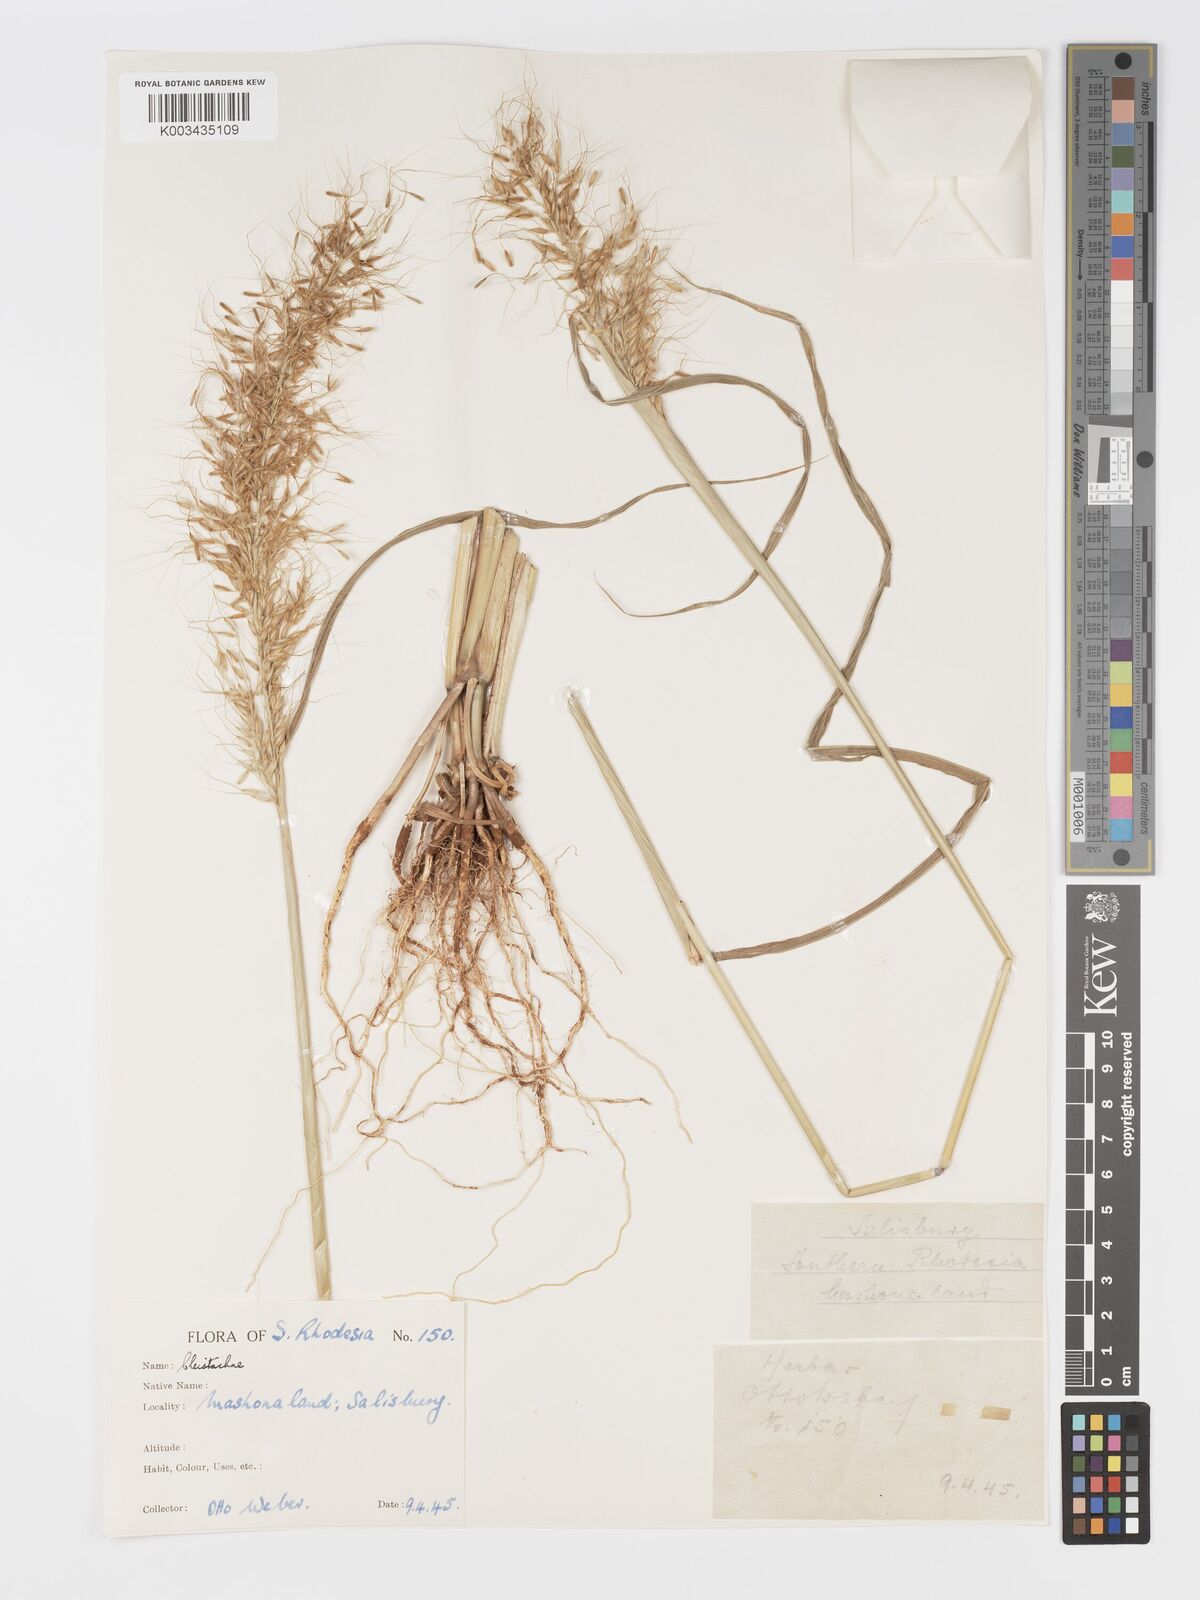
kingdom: Plantae
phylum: Tracheophyta
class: Liliopsida
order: Poales
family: Poaceae
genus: Cleistachne
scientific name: Cleistachne sorghoides
